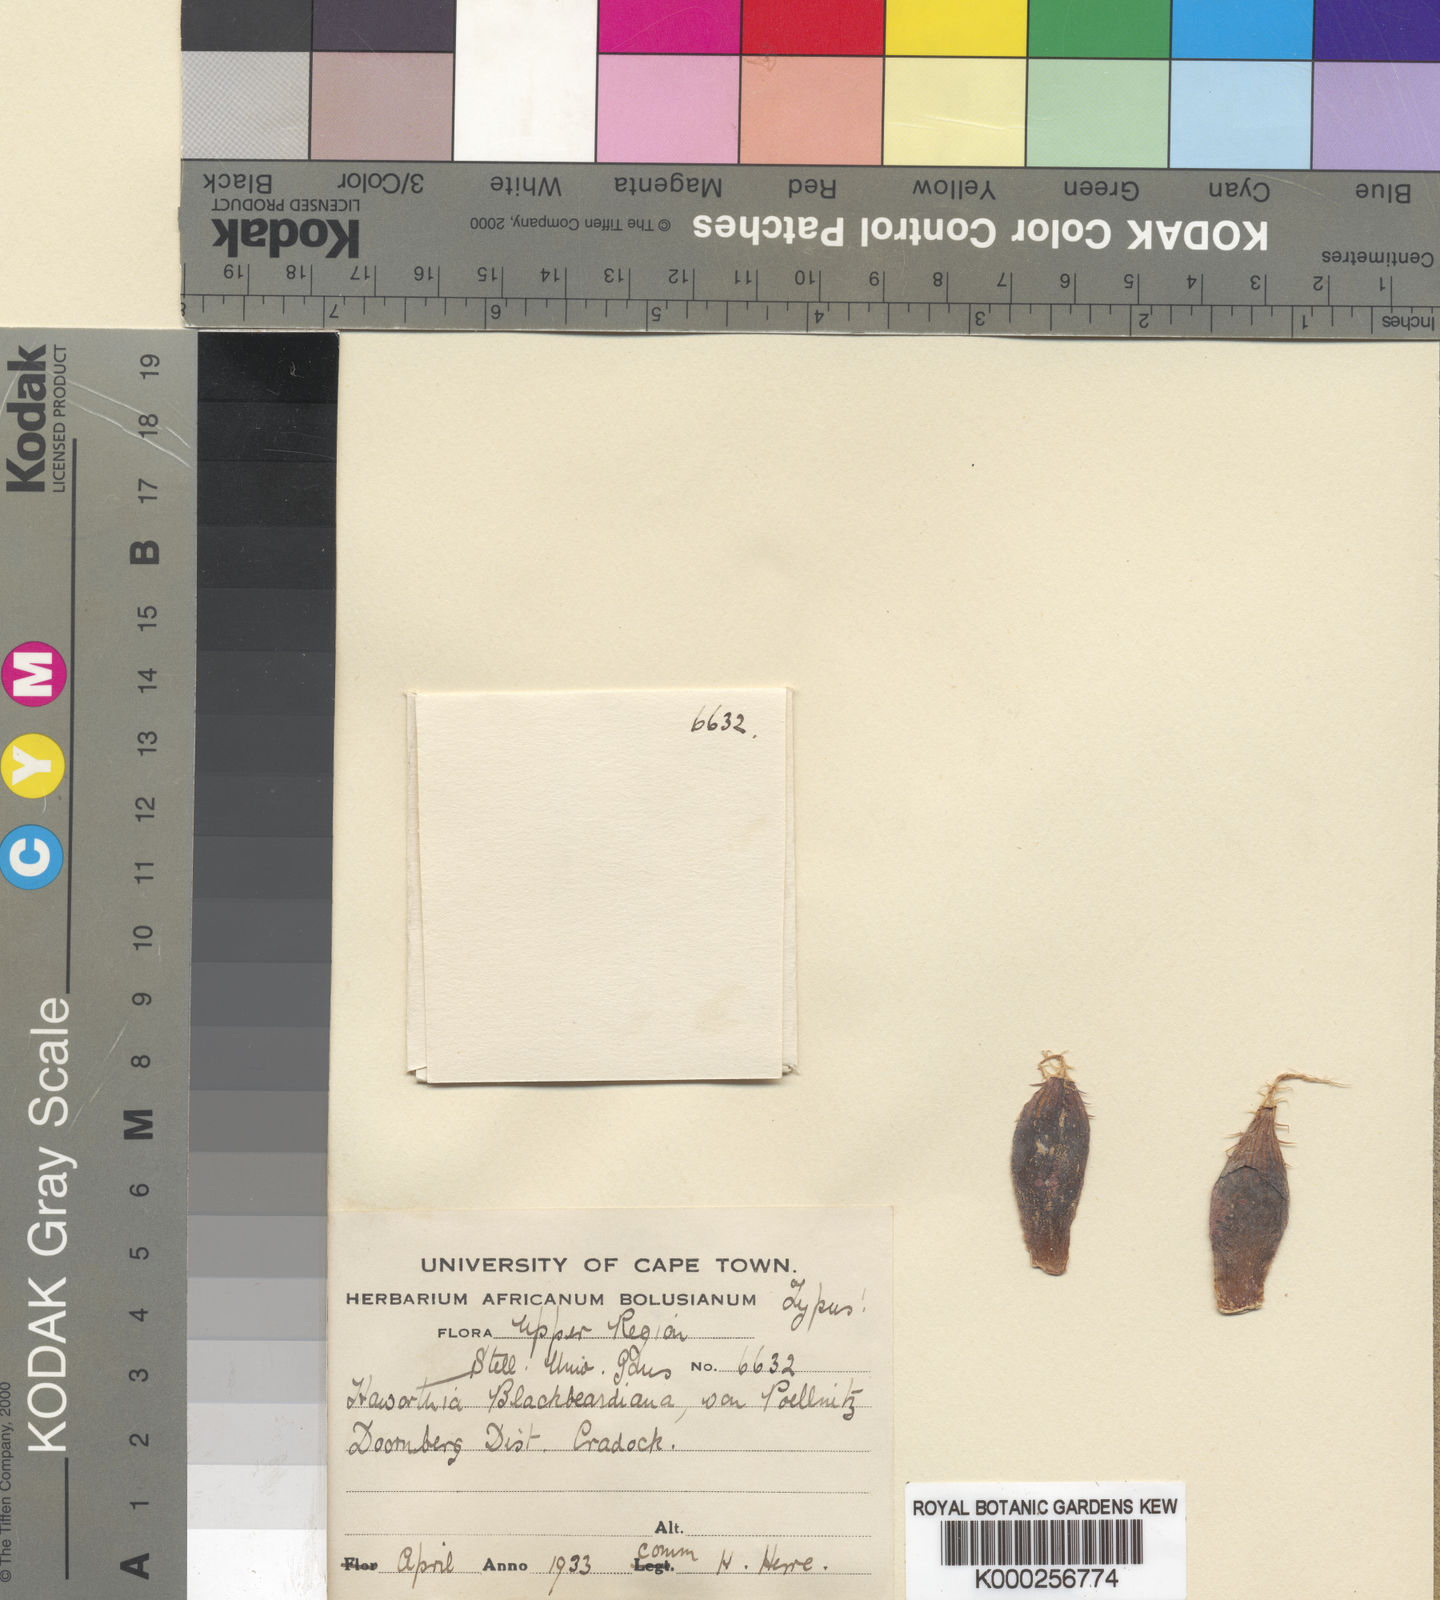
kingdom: Plantae
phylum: Tracheophyta
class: Liliopsida
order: Asparagales
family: Asphodelaceae
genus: Haworthia
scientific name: Haworthia bolusii
